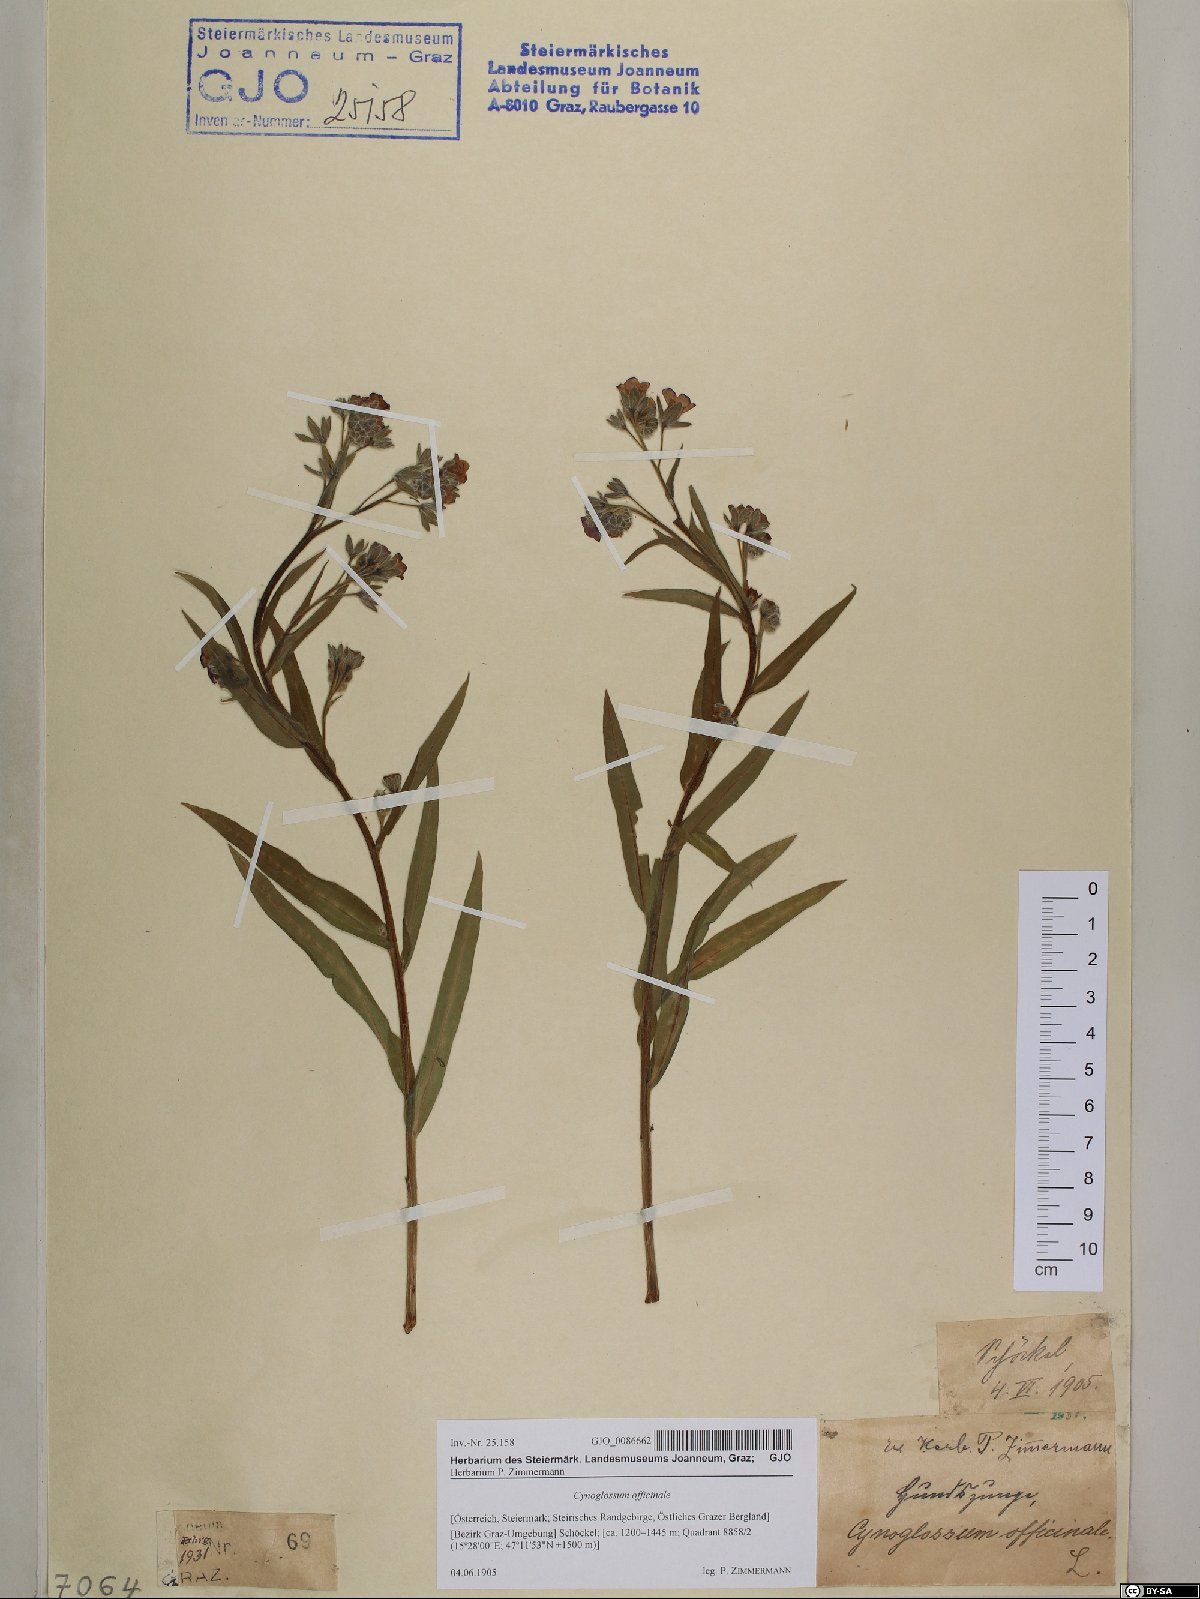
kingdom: Plantae
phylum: Tracheophyta
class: Magnoliopsida
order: Boraginales
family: Boraginaceae
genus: Cynoglossum
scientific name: Cynoglossum officinale
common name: Hound's-tongue
